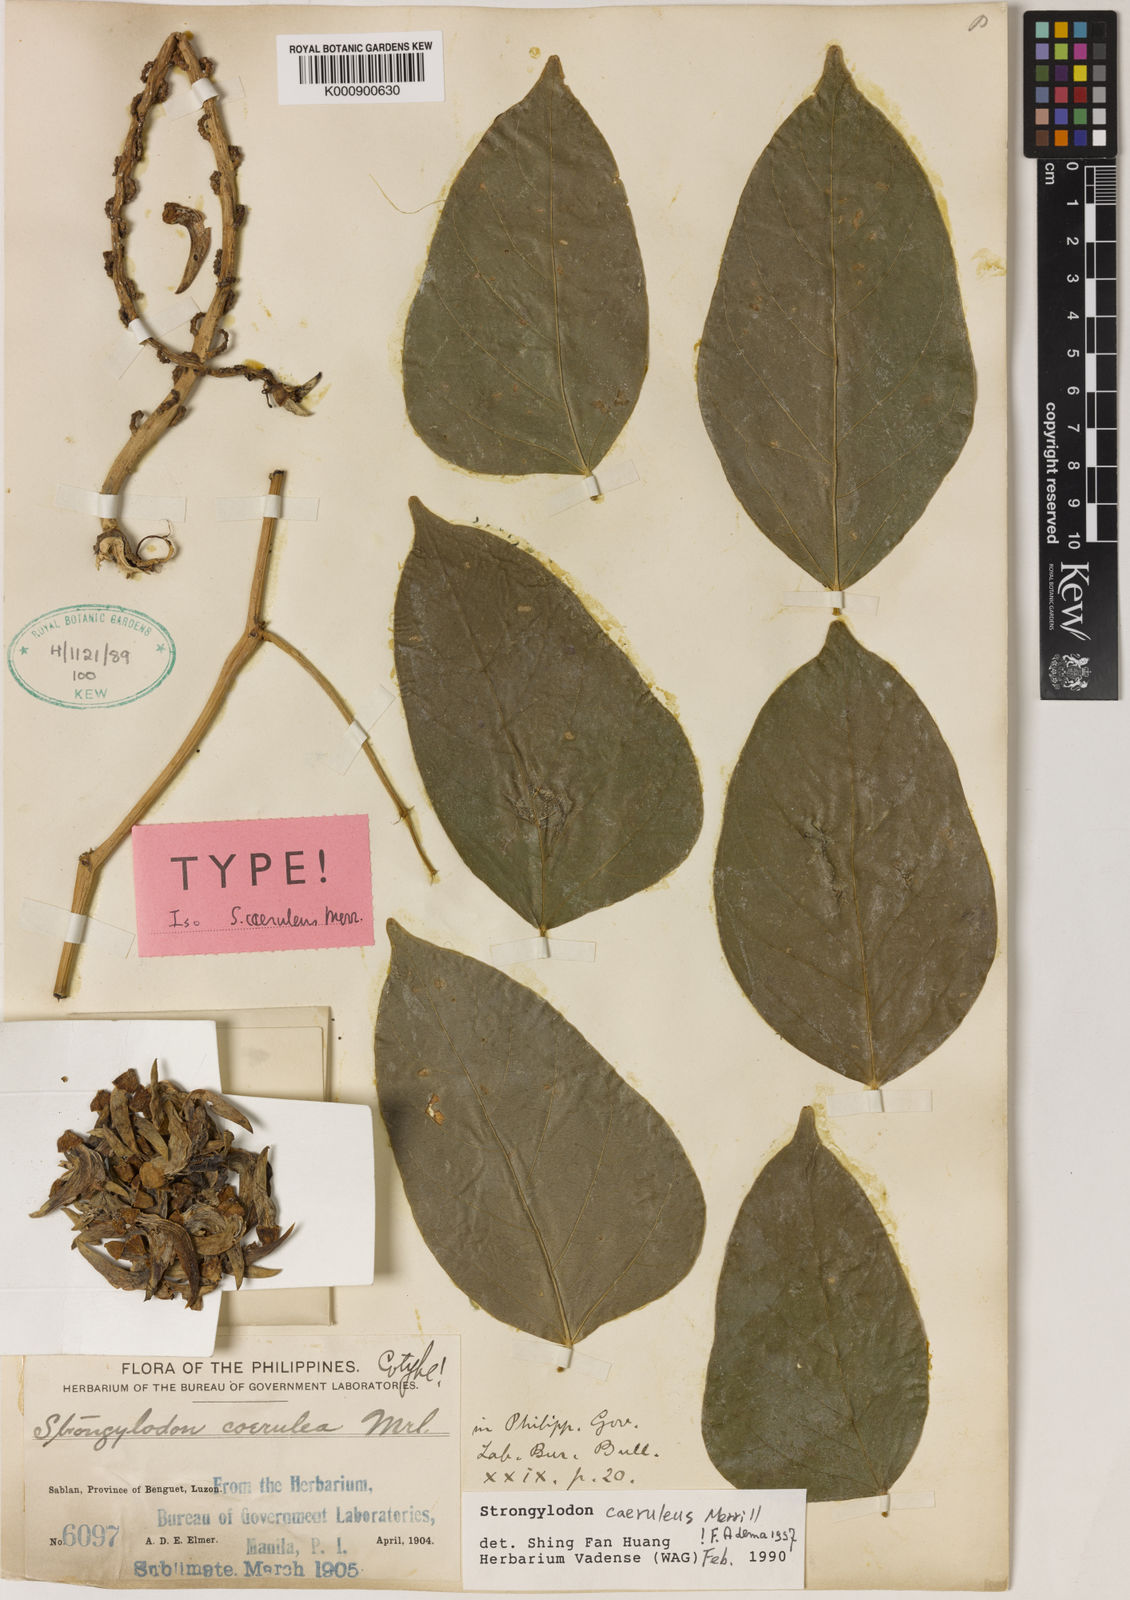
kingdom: Plantae
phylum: Tracheophyta
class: Magnoliopsida
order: Fabales
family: Fabaceae
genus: Strongylodon
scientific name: Strongylodon caeruleus
